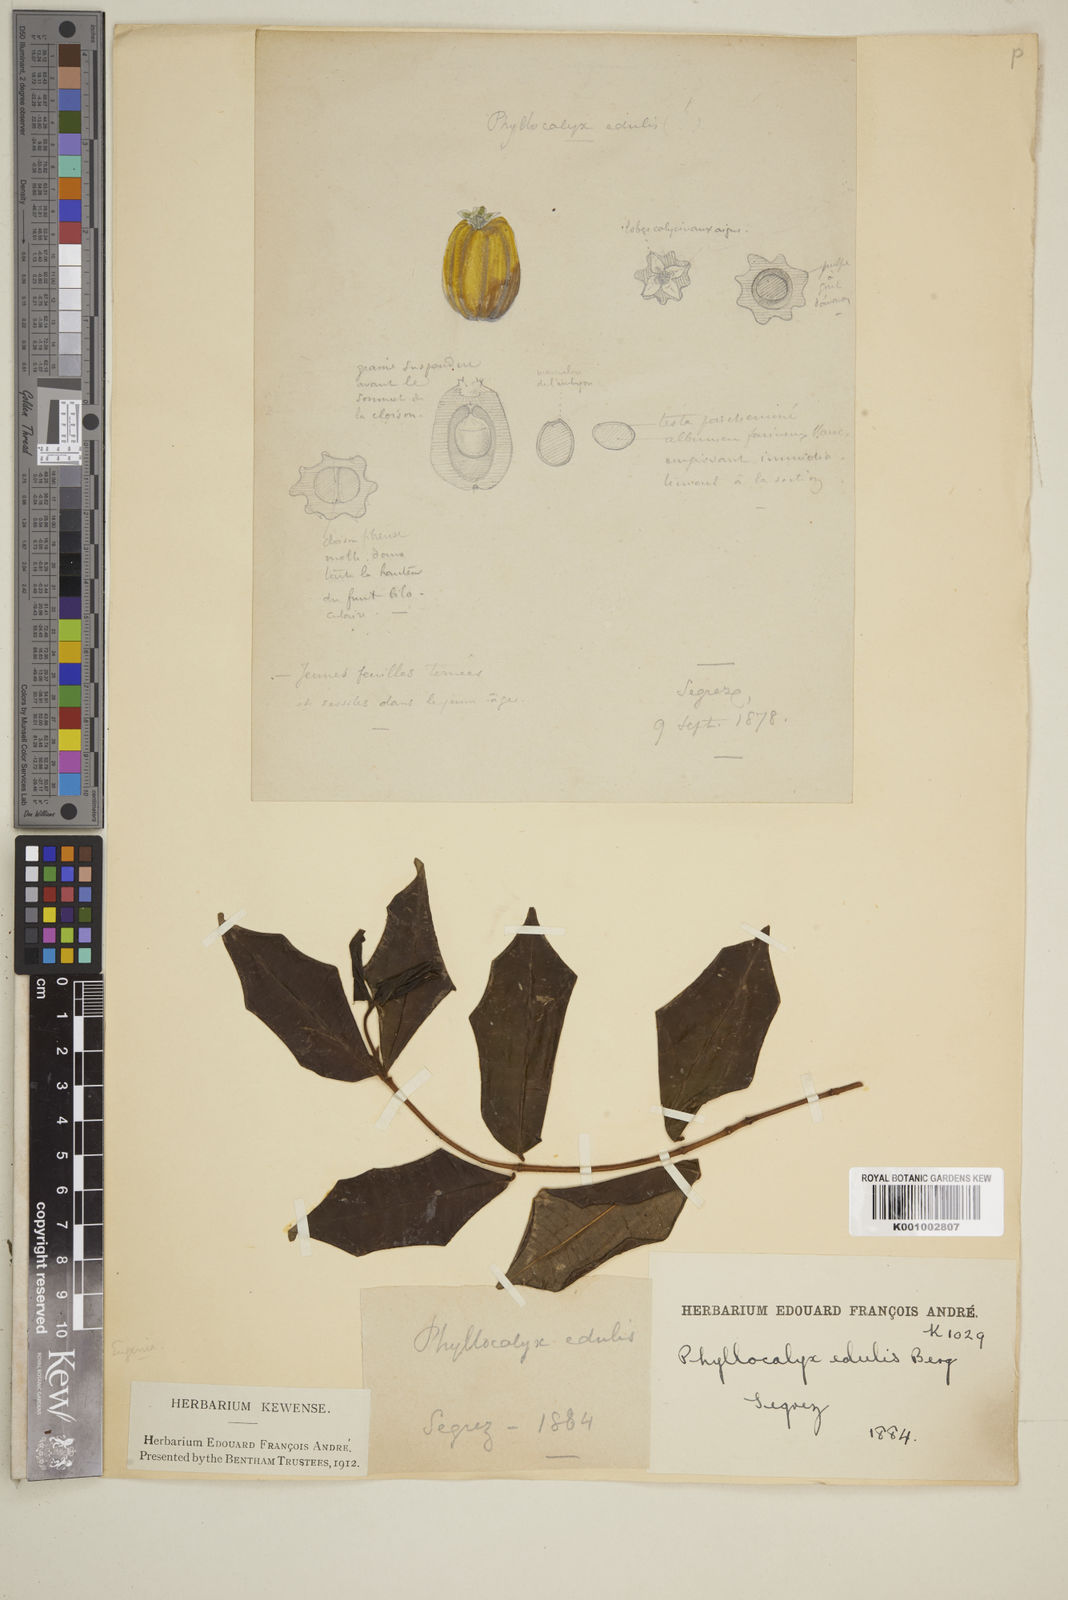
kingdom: Plantae
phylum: Tracheophyta
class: Magnoliopsida
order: Myrtales
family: Myrtaceae
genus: Plinia
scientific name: Plinia edulis
